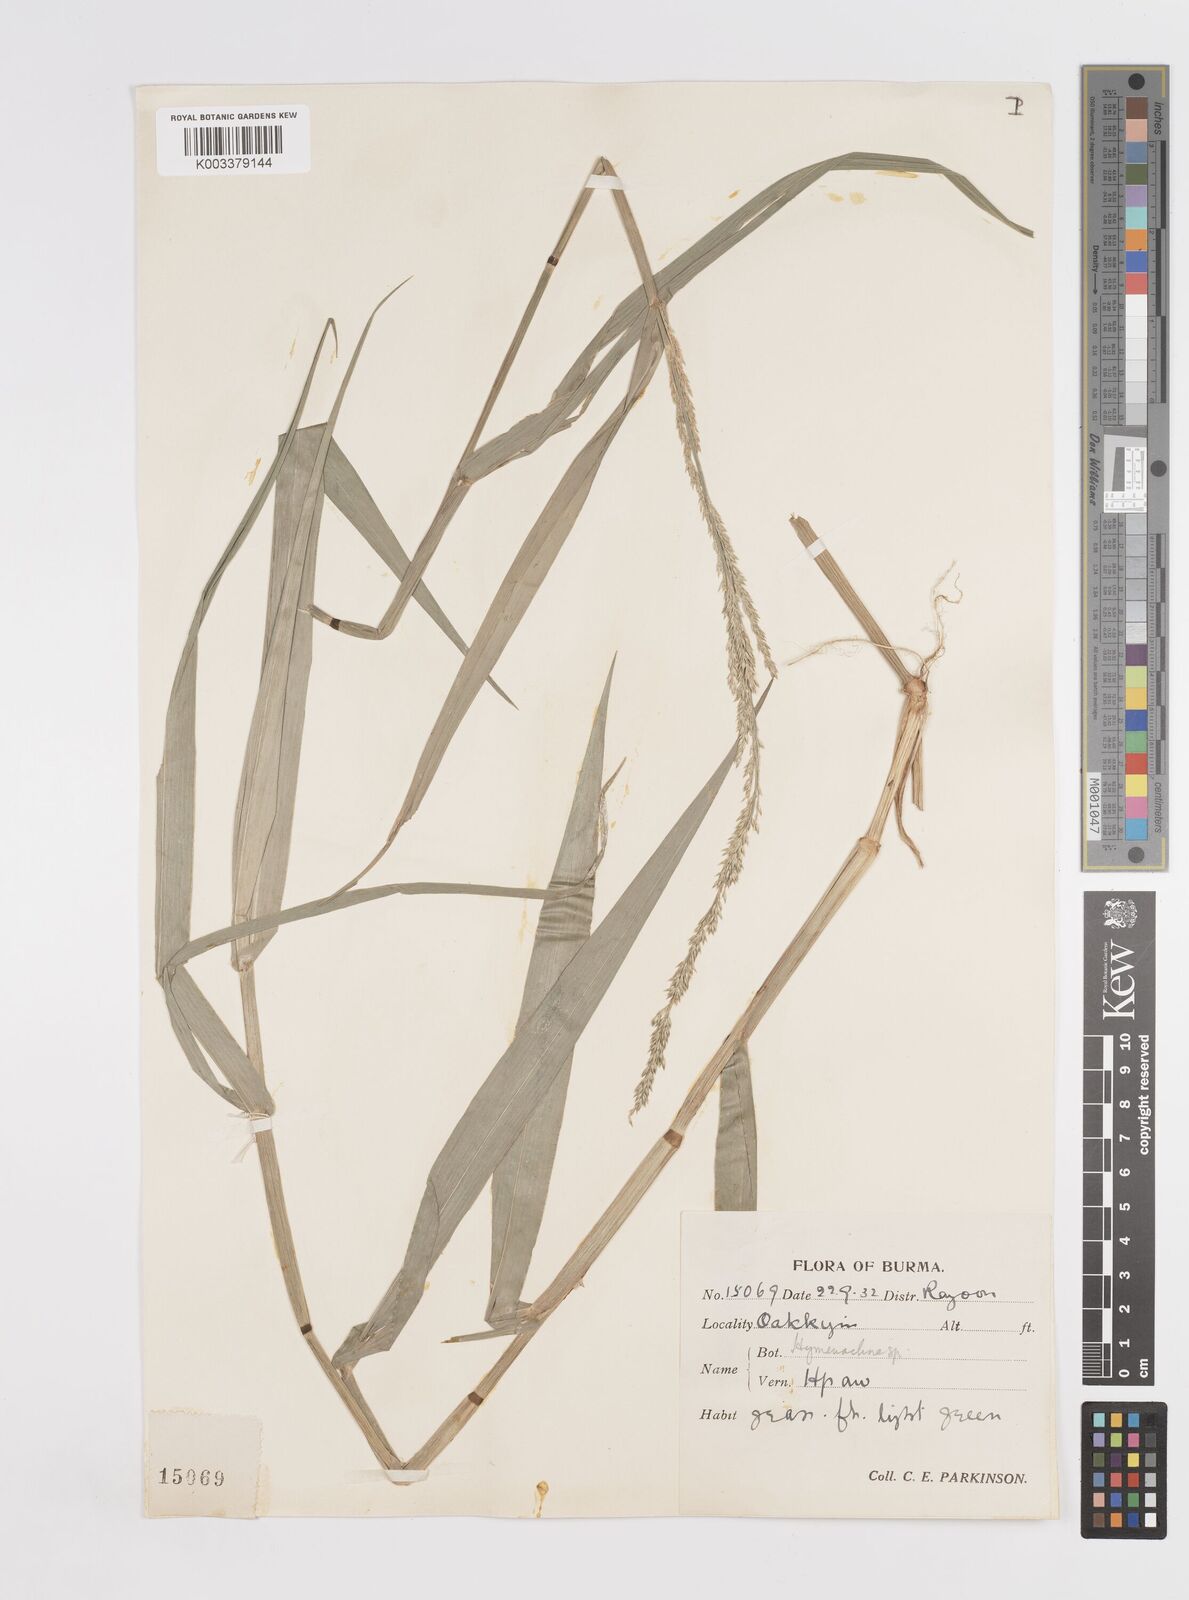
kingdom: Plantae
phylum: Tracheophyta
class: Liliopsida
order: Poales
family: Poaceae
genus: Hymenachne
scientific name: Hymenachne assamica
